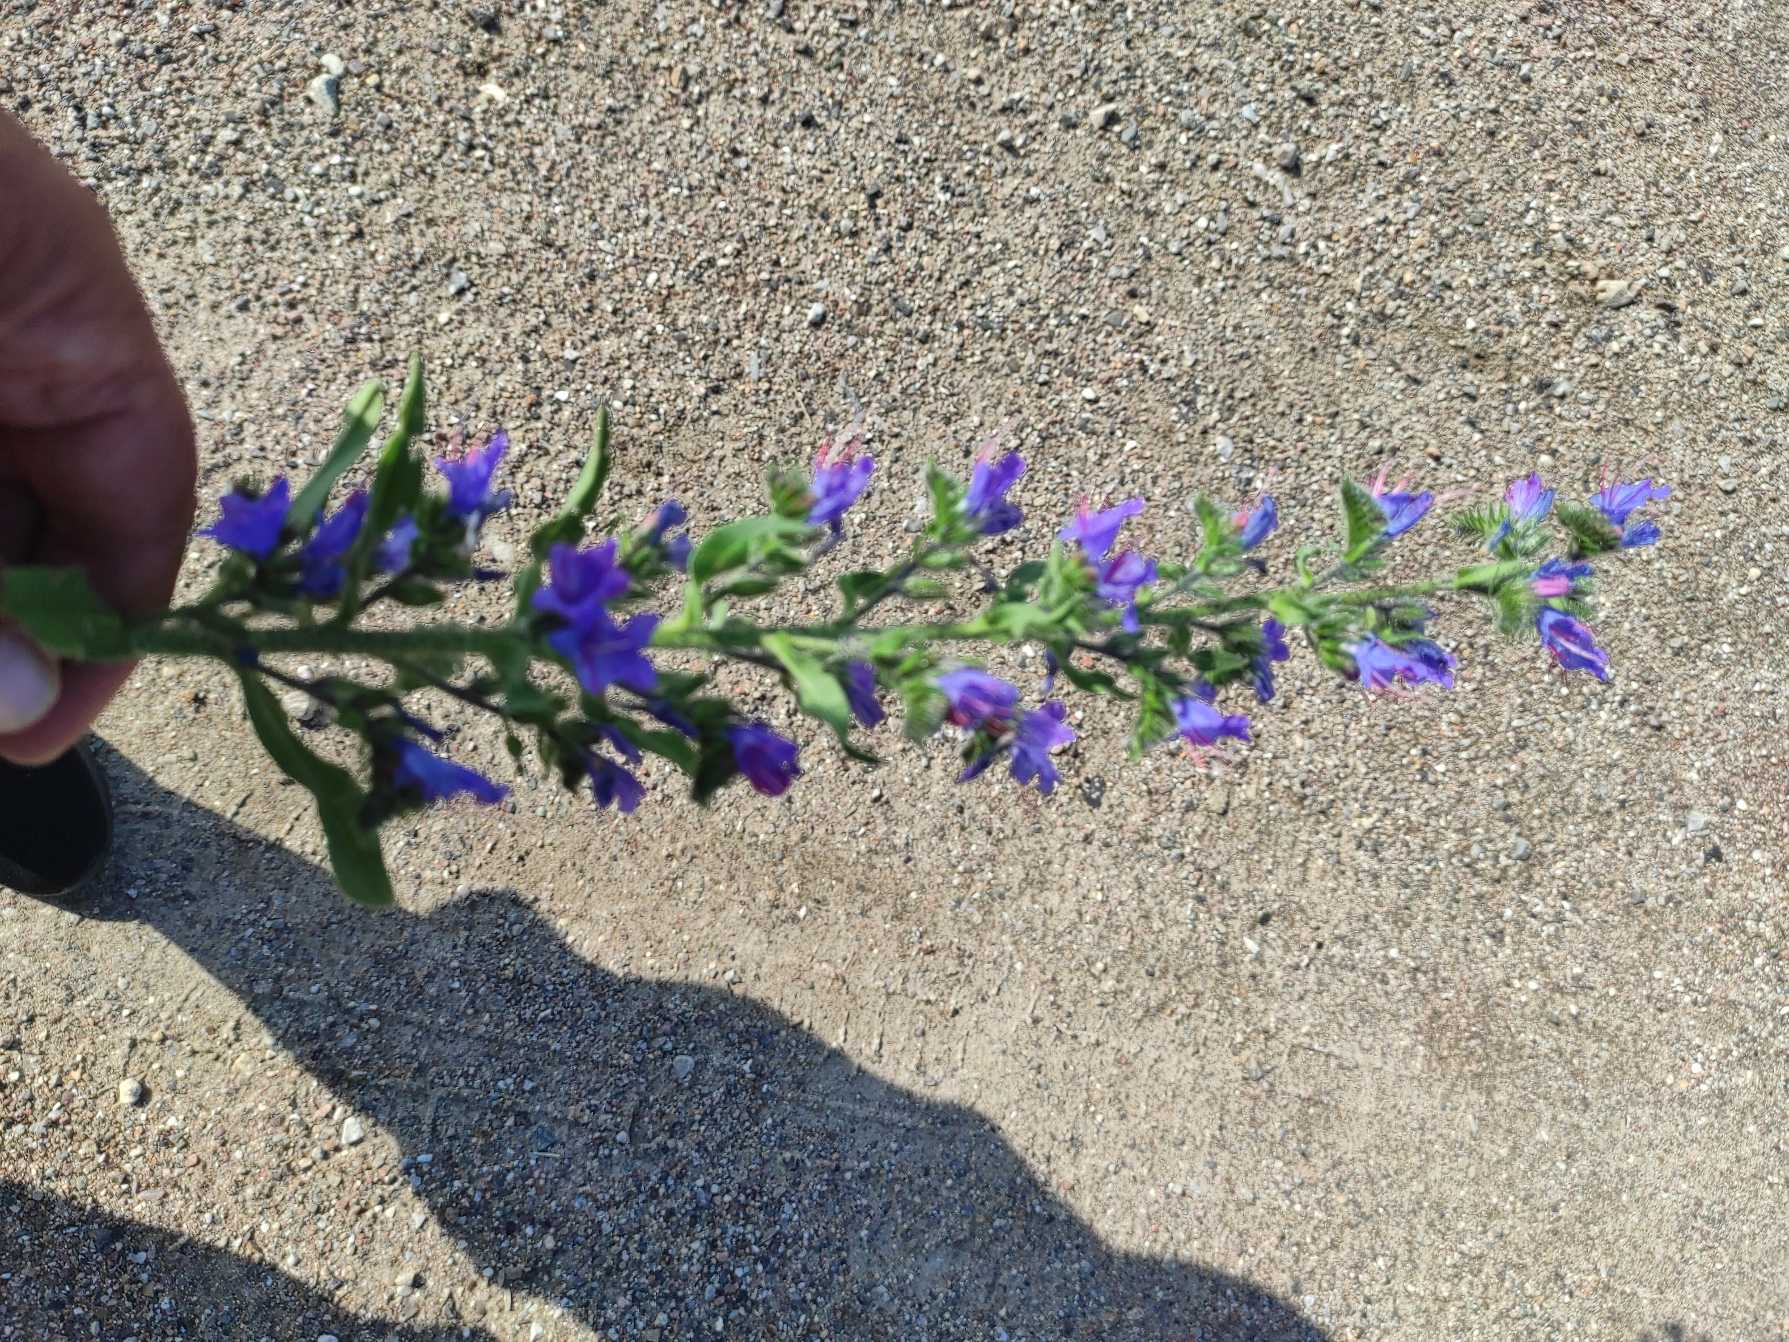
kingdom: Plantae
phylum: Tracheophyta
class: Magnoliopsida
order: Boraginales
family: Boraginaceae
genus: Echium
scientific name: Echium vulgare
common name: Slangehoved
